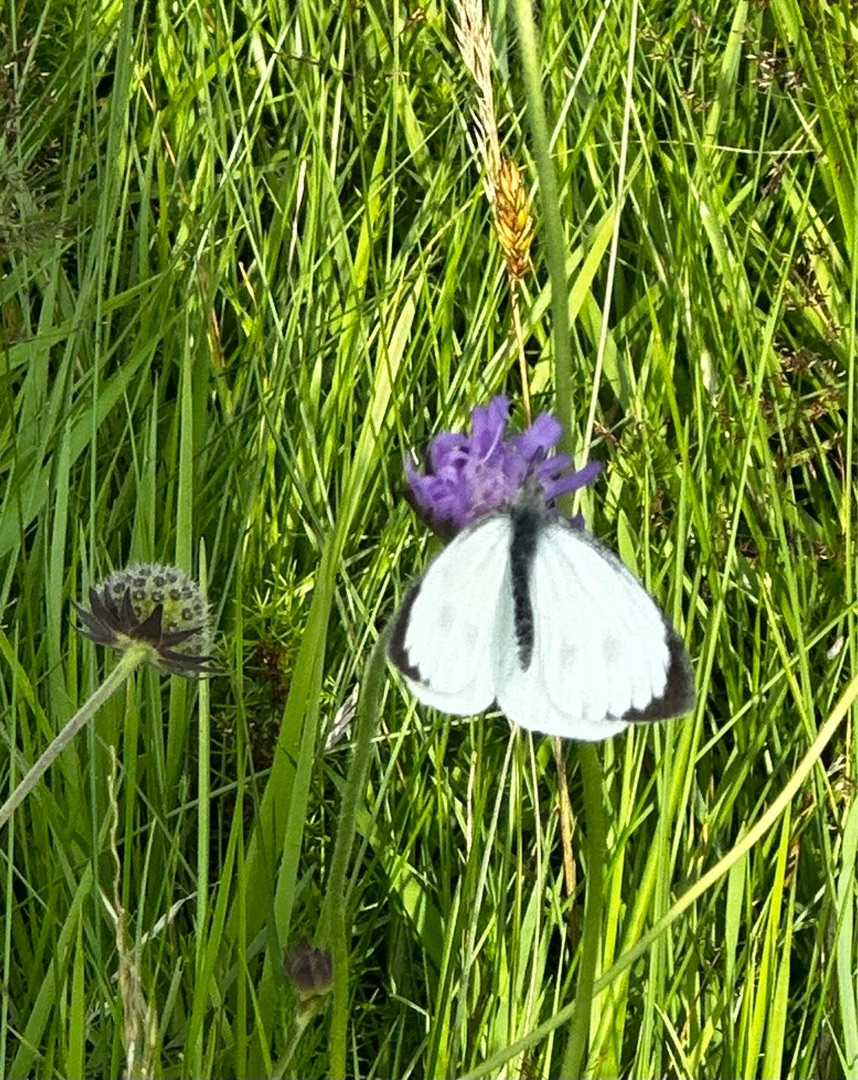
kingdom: Animalia
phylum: Arthropoda
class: Insecta
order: Lepidoptera
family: Pieridae
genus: Pieris
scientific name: Pieris brassicae
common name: Stor kålsommerfugl
